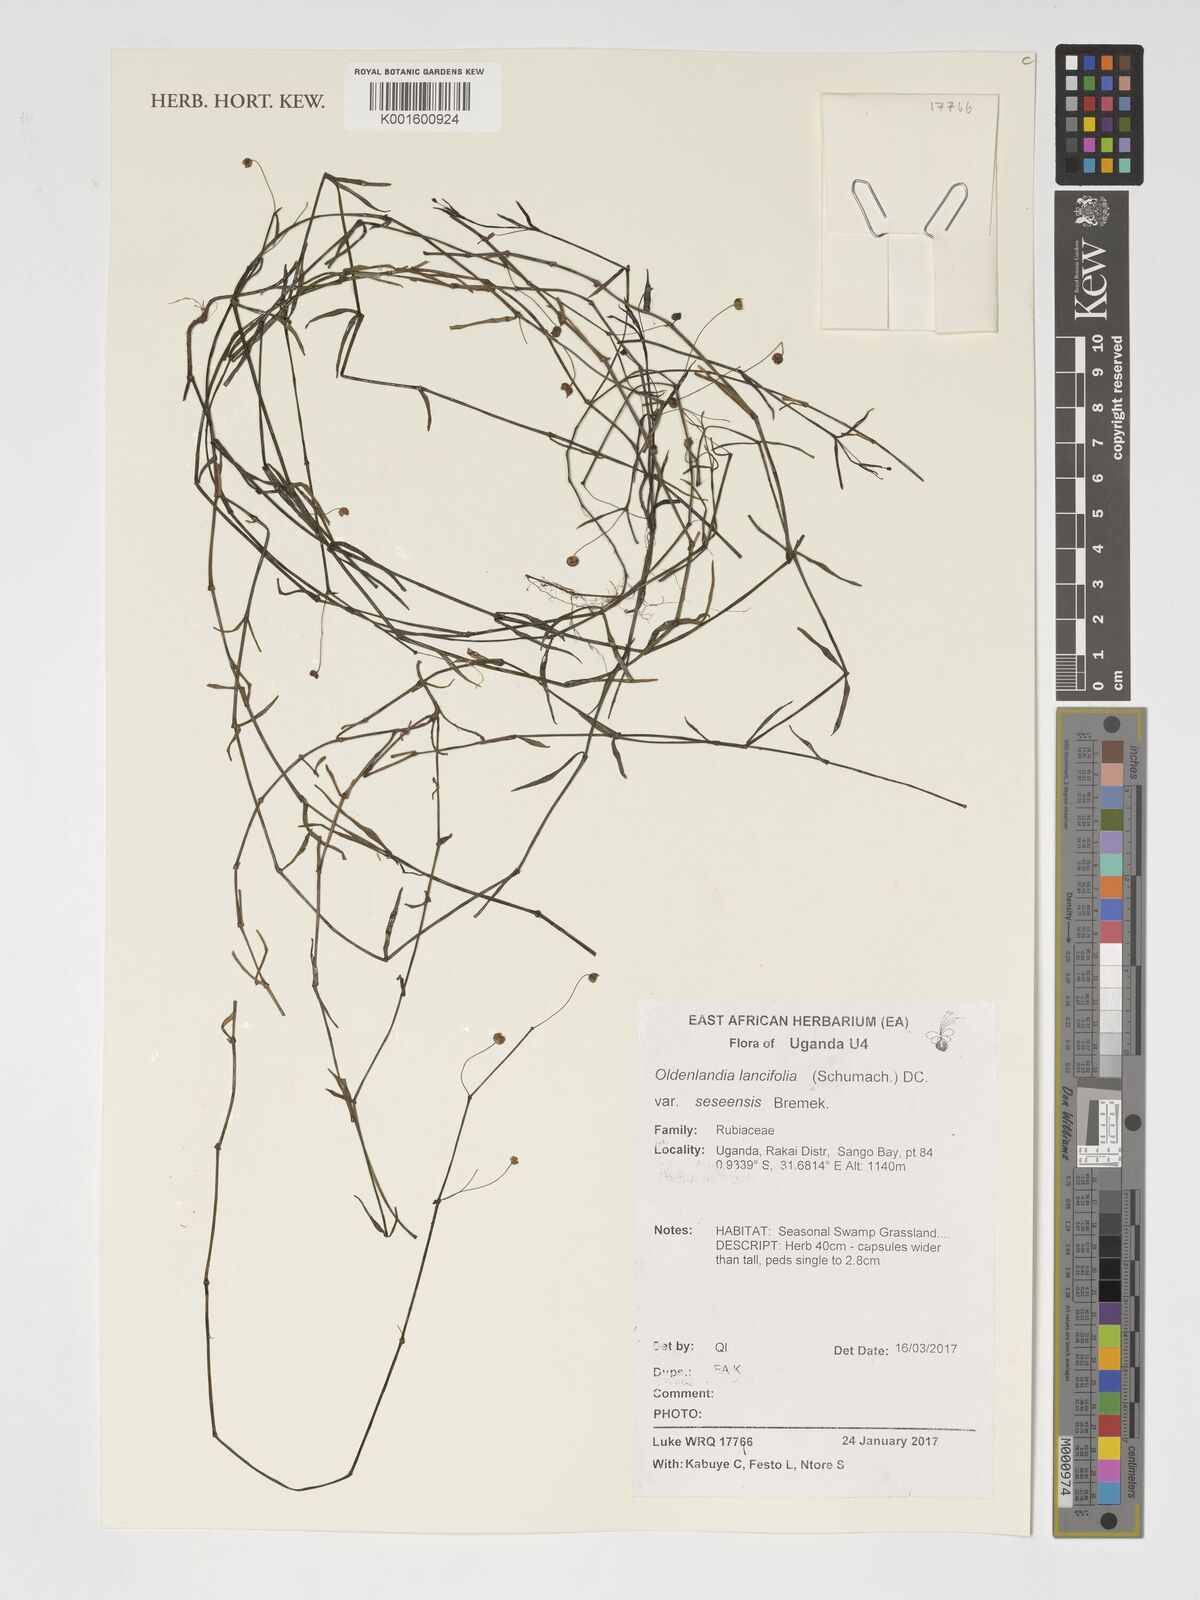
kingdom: Plantae
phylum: Tracheophyta
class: Magnoliopsida
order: Gentianales
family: Rubiaceae
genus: Oldenlandia
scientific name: Oldenlandia lancifolia
